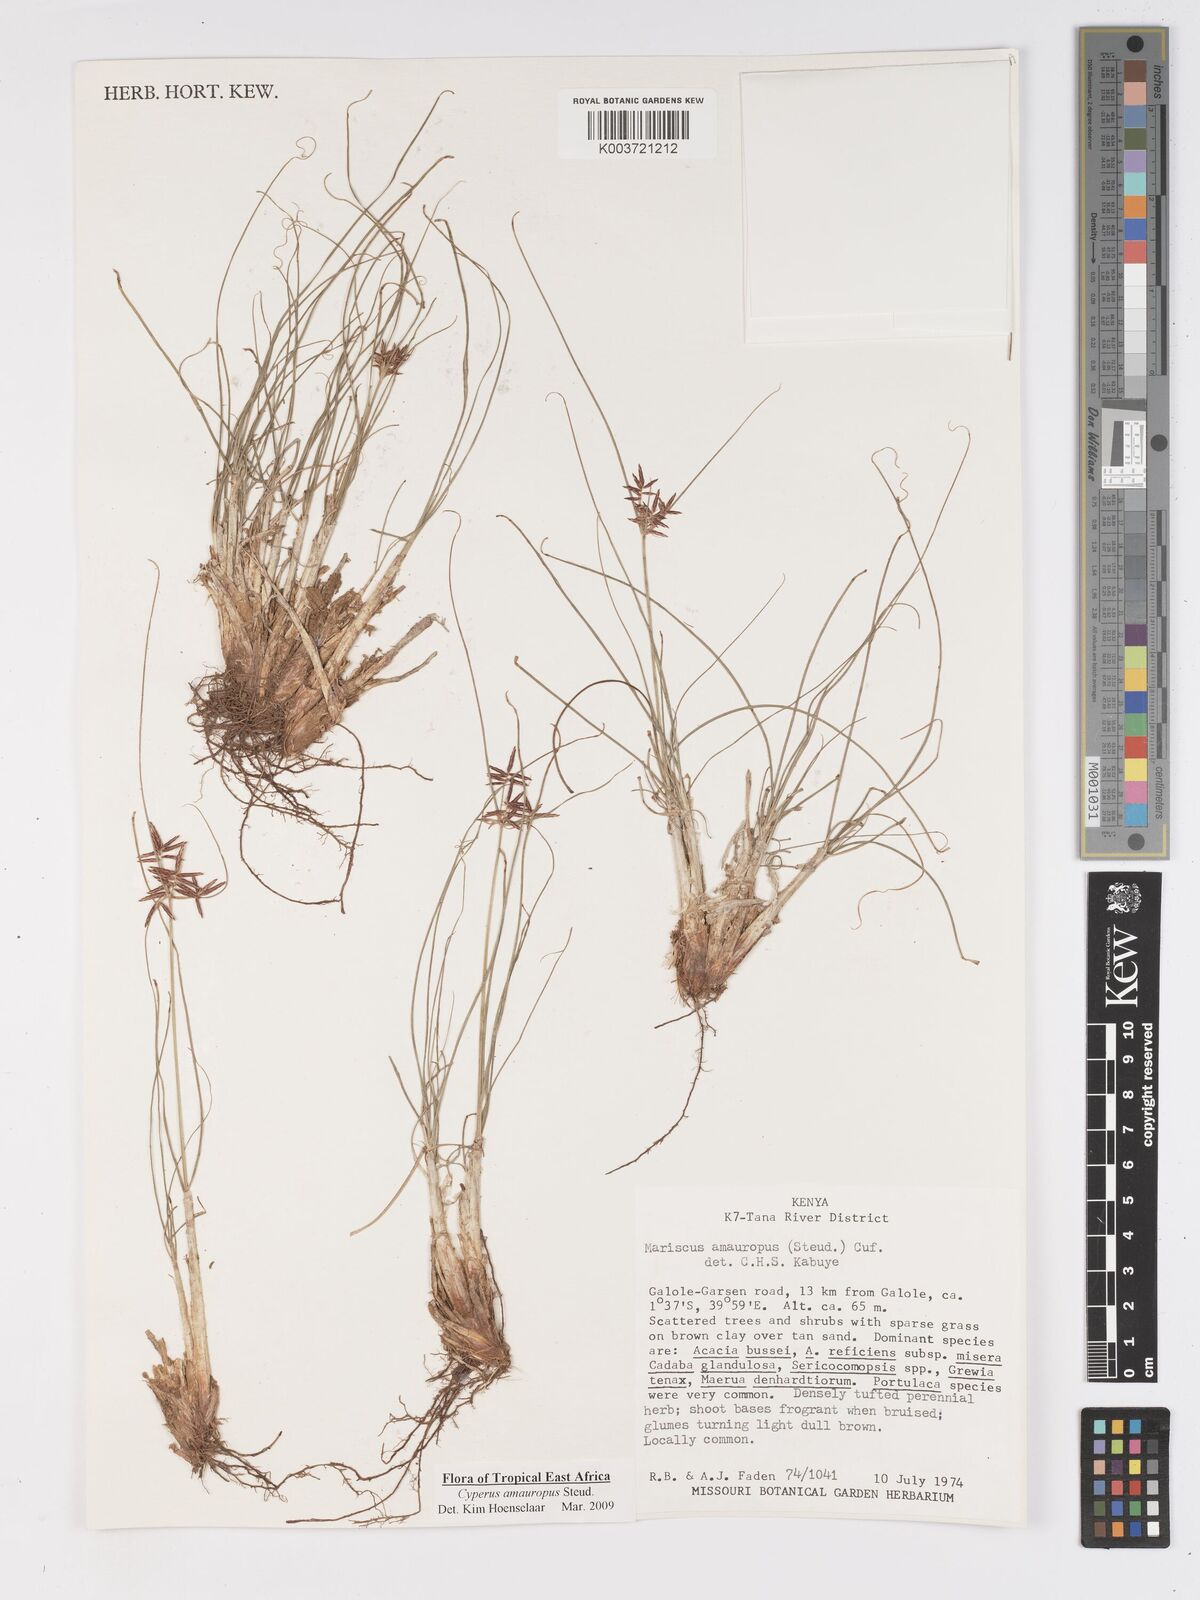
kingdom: Plantae
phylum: Tracheophyta
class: Liliopsida
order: Poales
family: Cyperaceae
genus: Cyperus
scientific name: Cyperus amauropus
